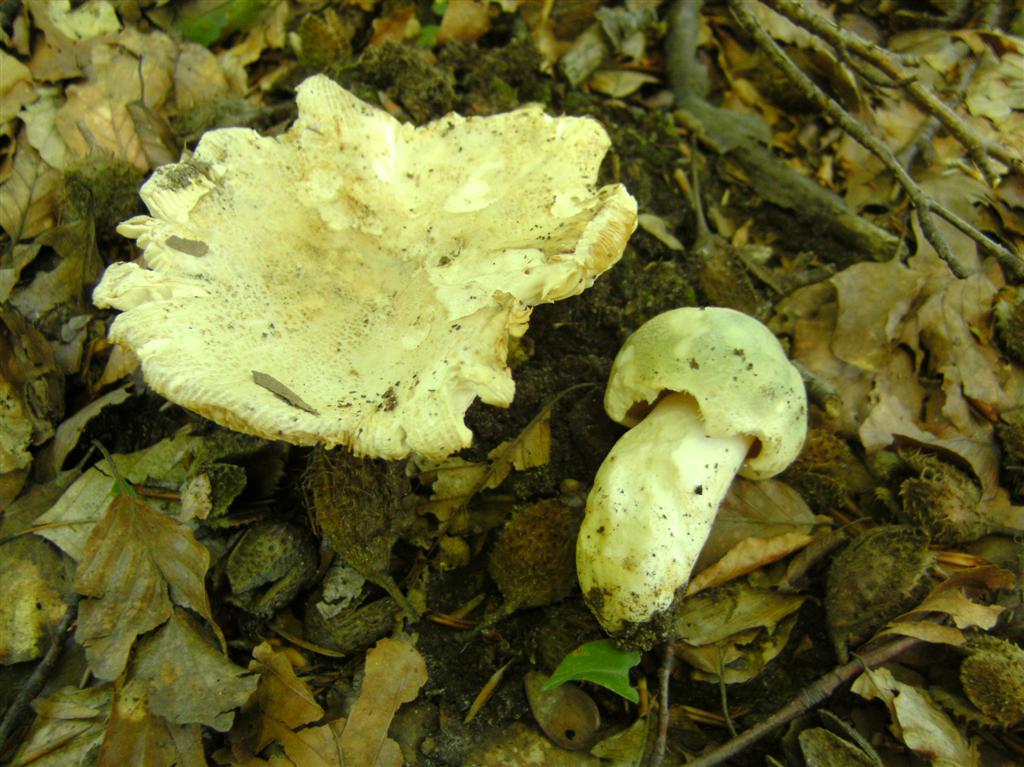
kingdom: Fungi
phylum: Basidiomycota
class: Agaricomycetes
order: Russulales
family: Russulaceae
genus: Russula
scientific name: Russula virescens
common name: spanskgrøn skørhat
